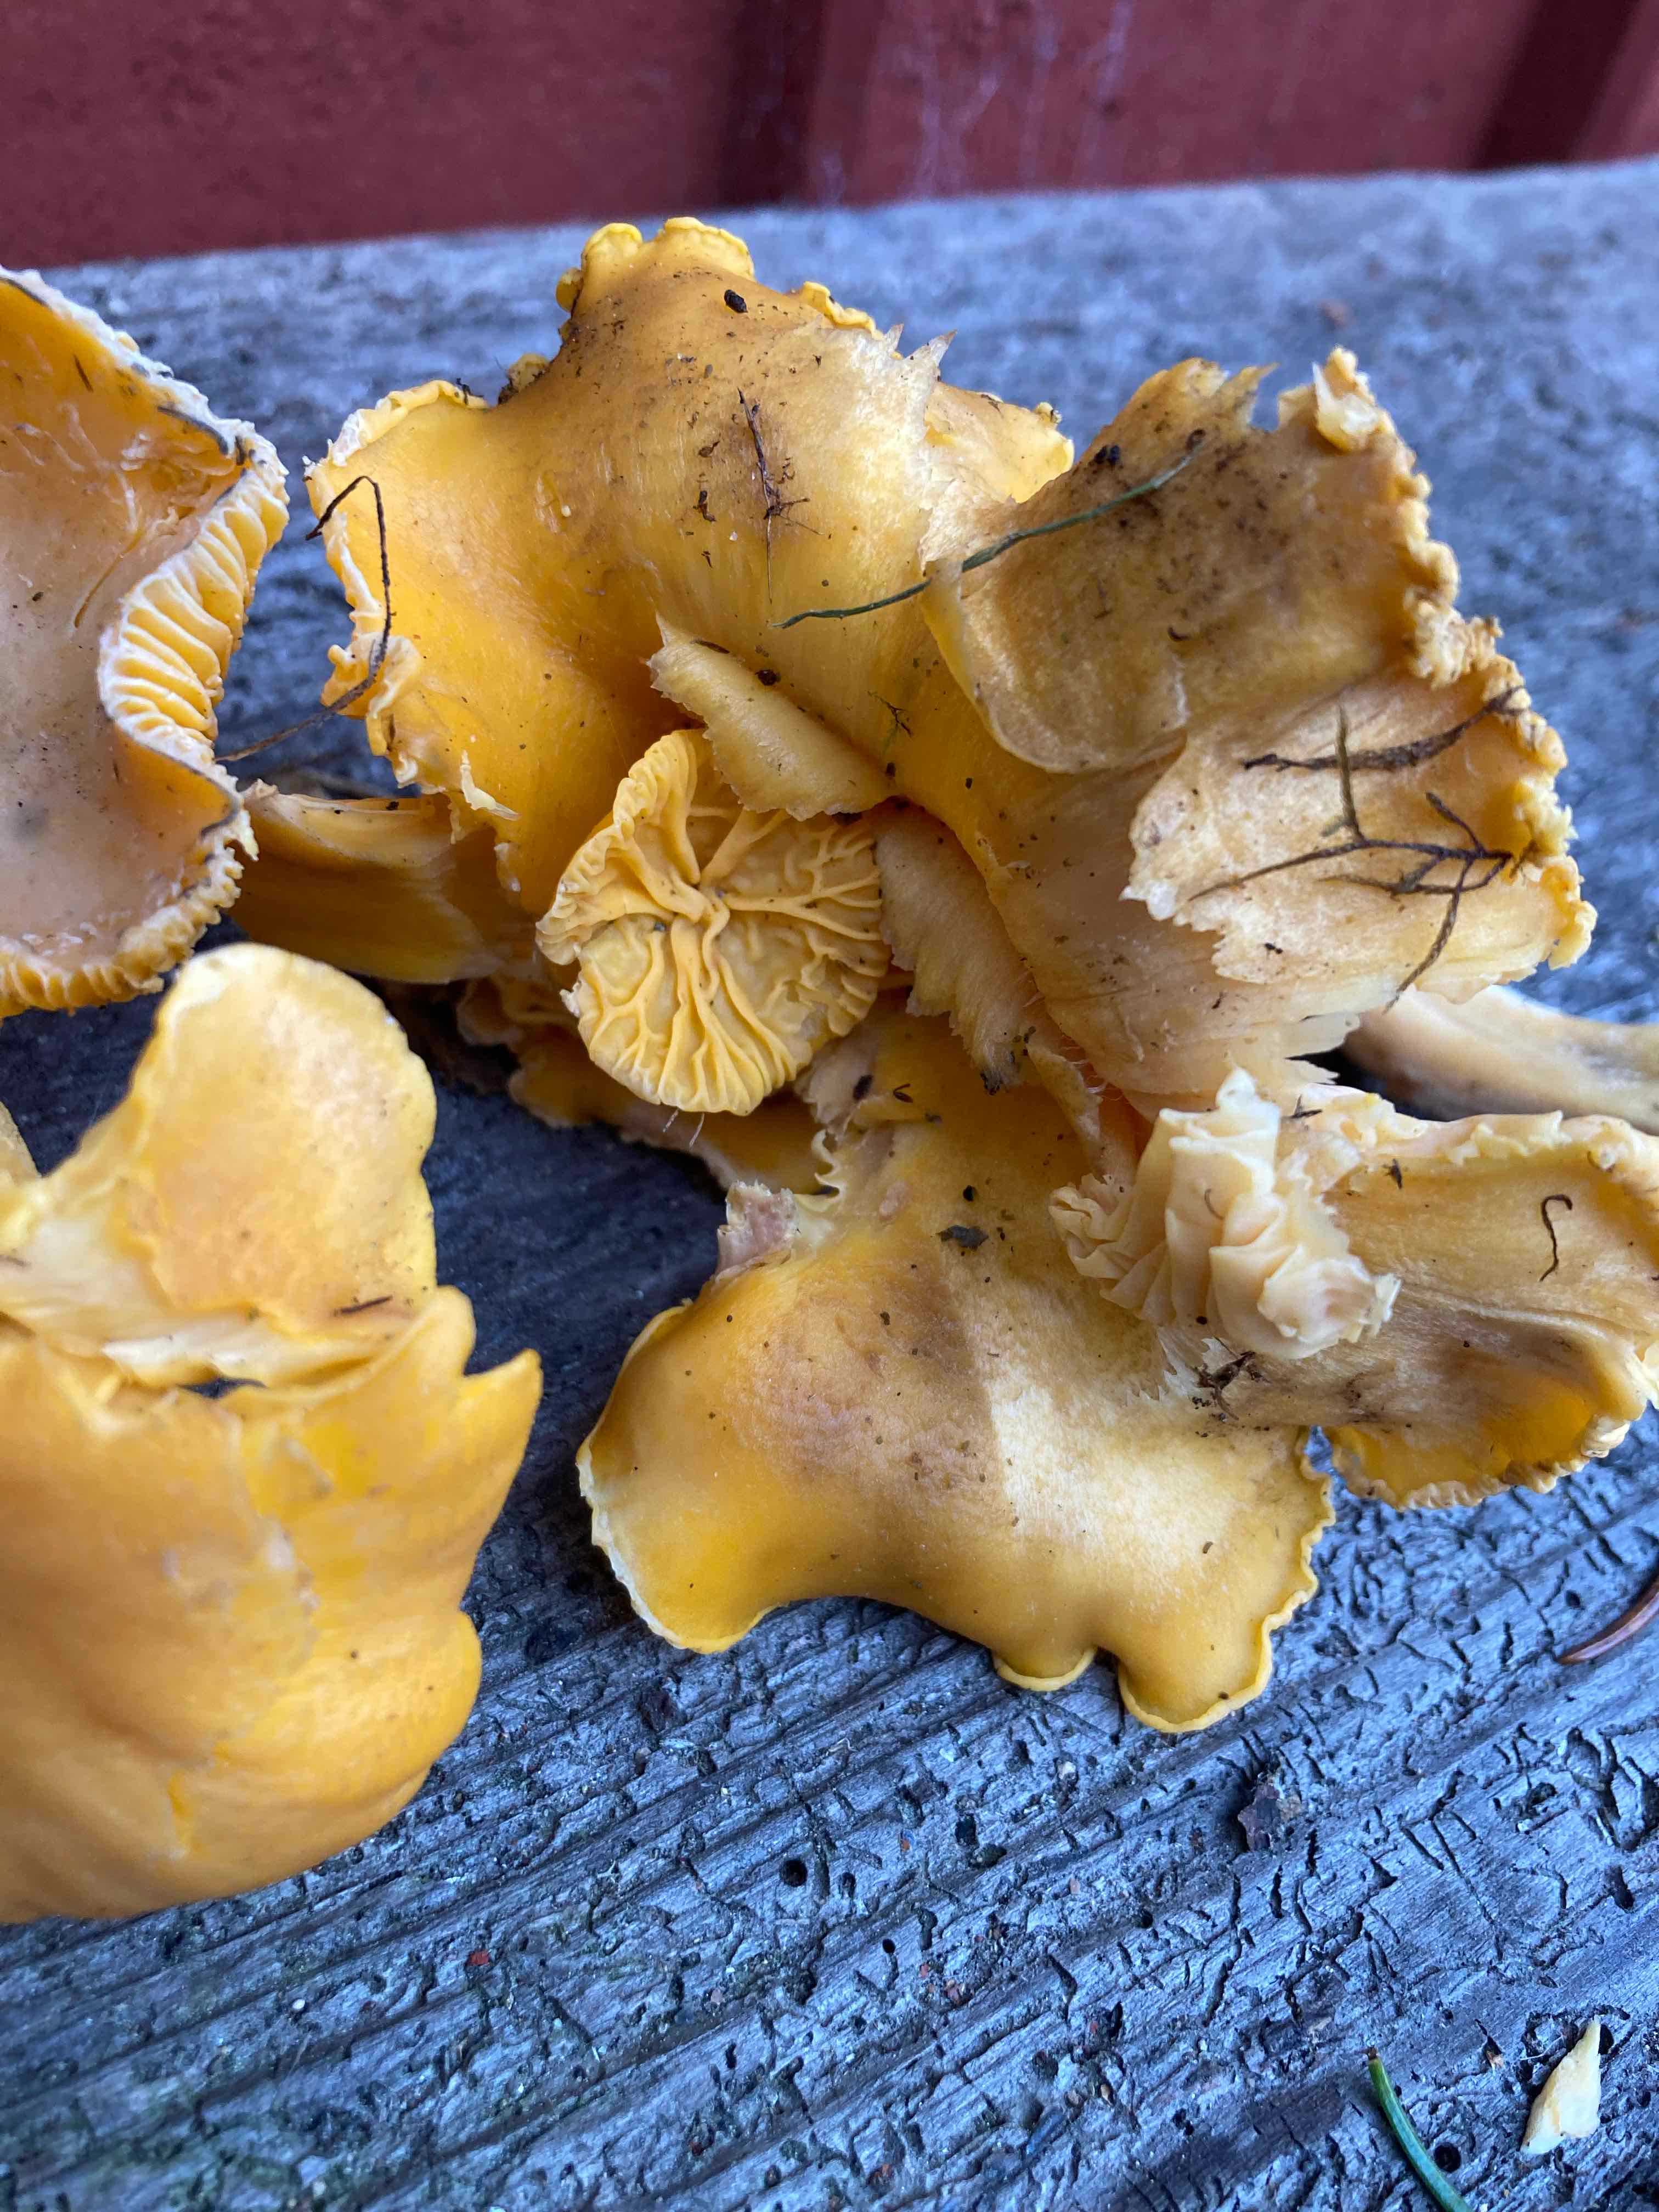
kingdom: Fungi
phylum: Basidiomycota
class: Agaricomycetes
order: Cantharellales
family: Hydnaceae
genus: Cantharellus
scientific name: Cantharellus cibarius
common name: almindelig kantarel
